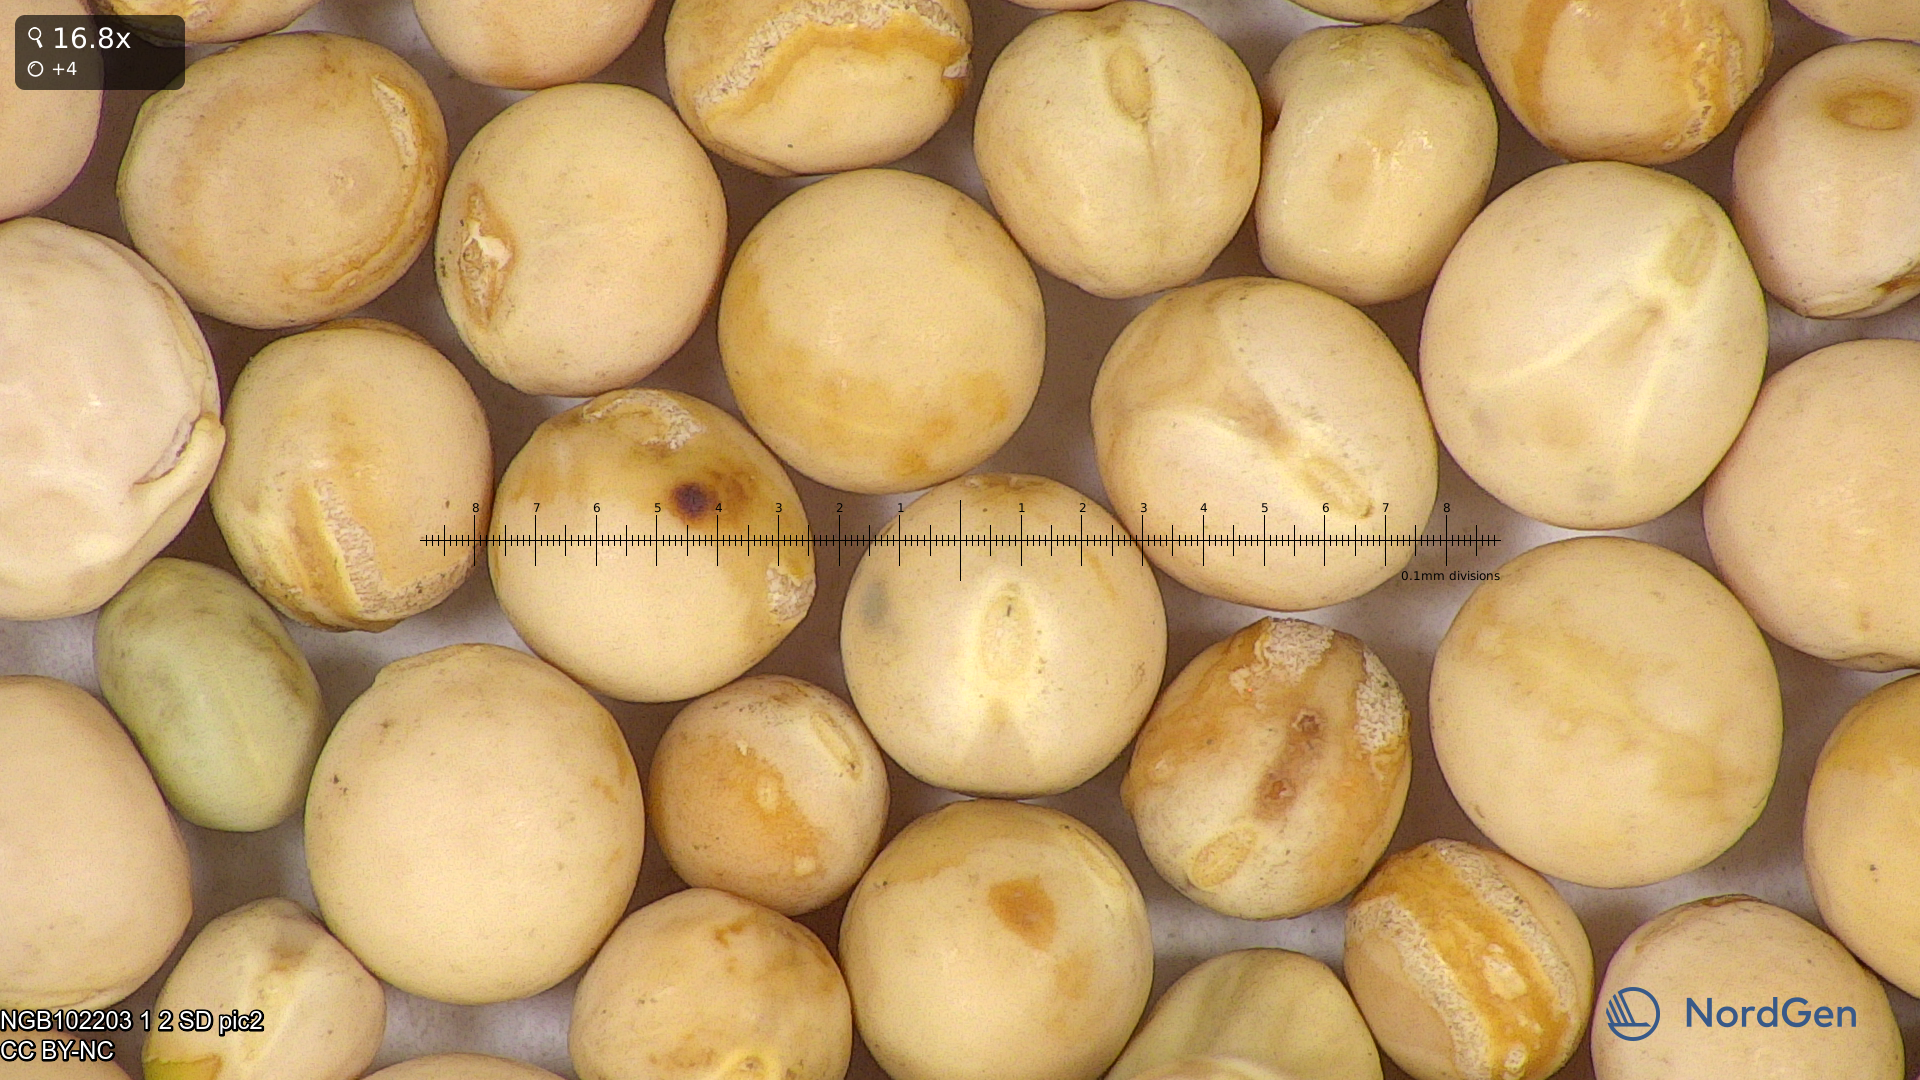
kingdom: Plantae
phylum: Tracheophyta
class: Magnoliopsida
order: Fabales
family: Fabaceae
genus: Lathyrus
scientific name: Lathyrus oleraceus
